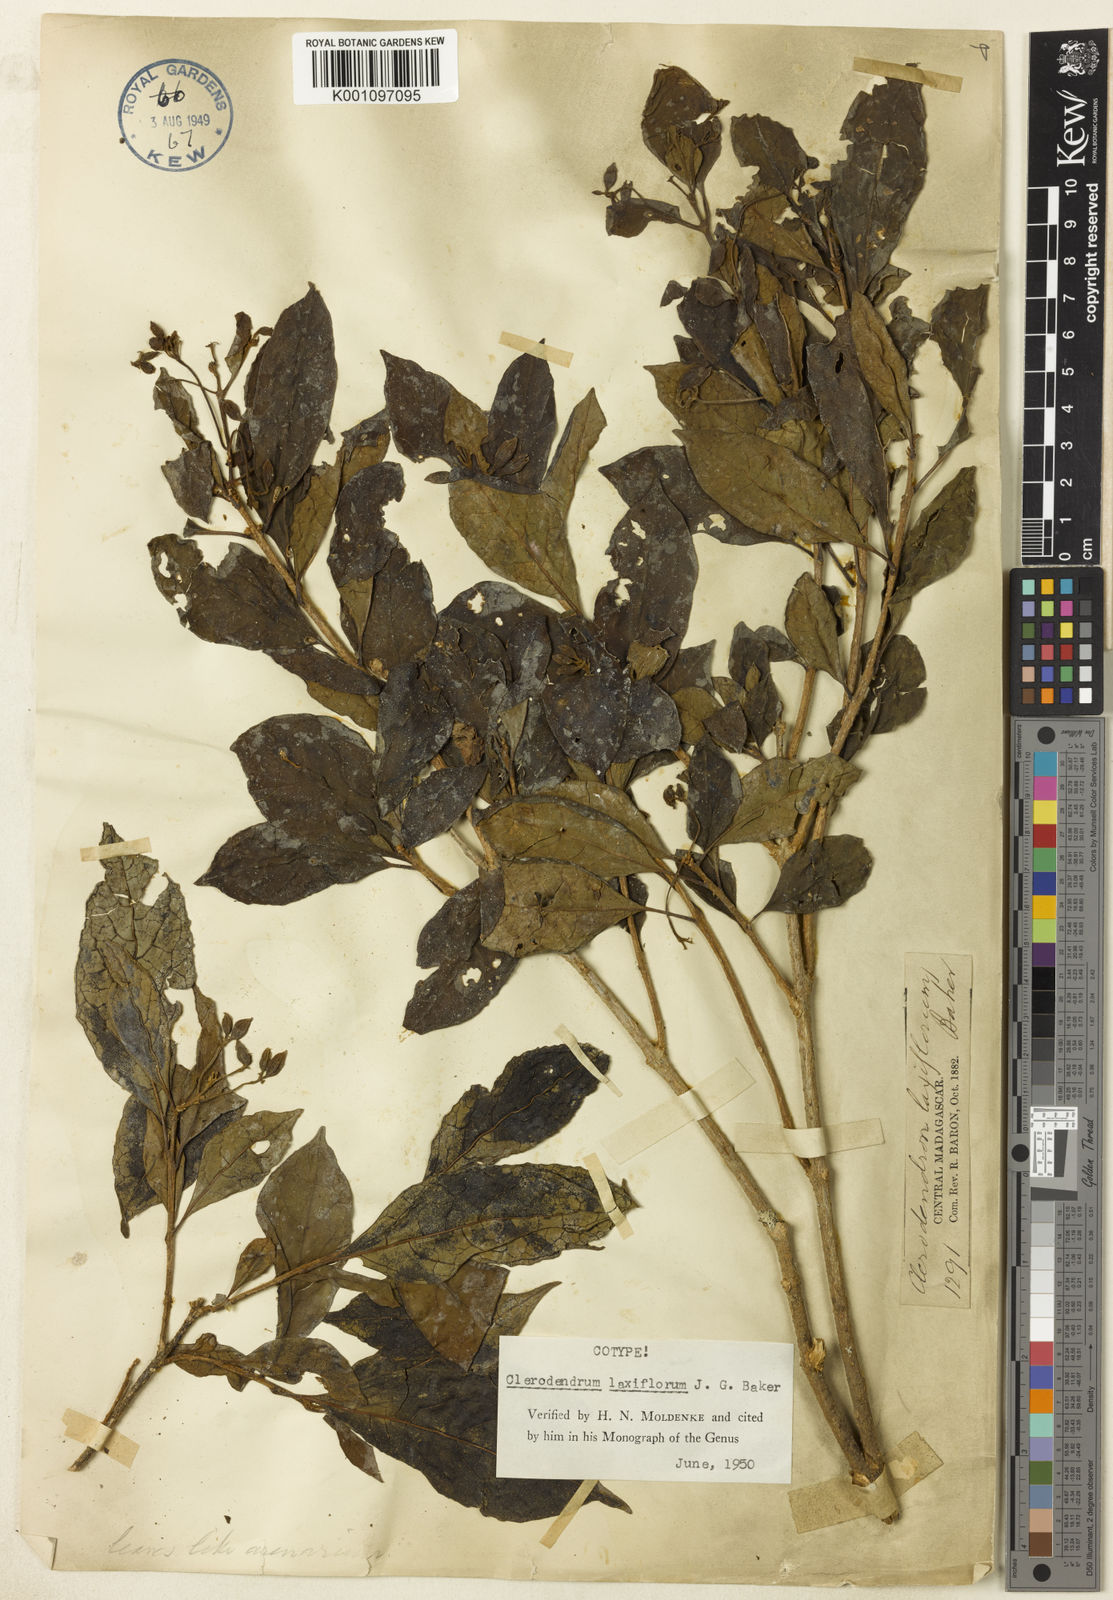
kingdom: Plantae
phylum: Tracheophyta
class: Magnoliopsida
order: Lamiales
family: Lamiaceae
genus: Clerodendrum
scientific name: Clerodendrum laxiflorum
